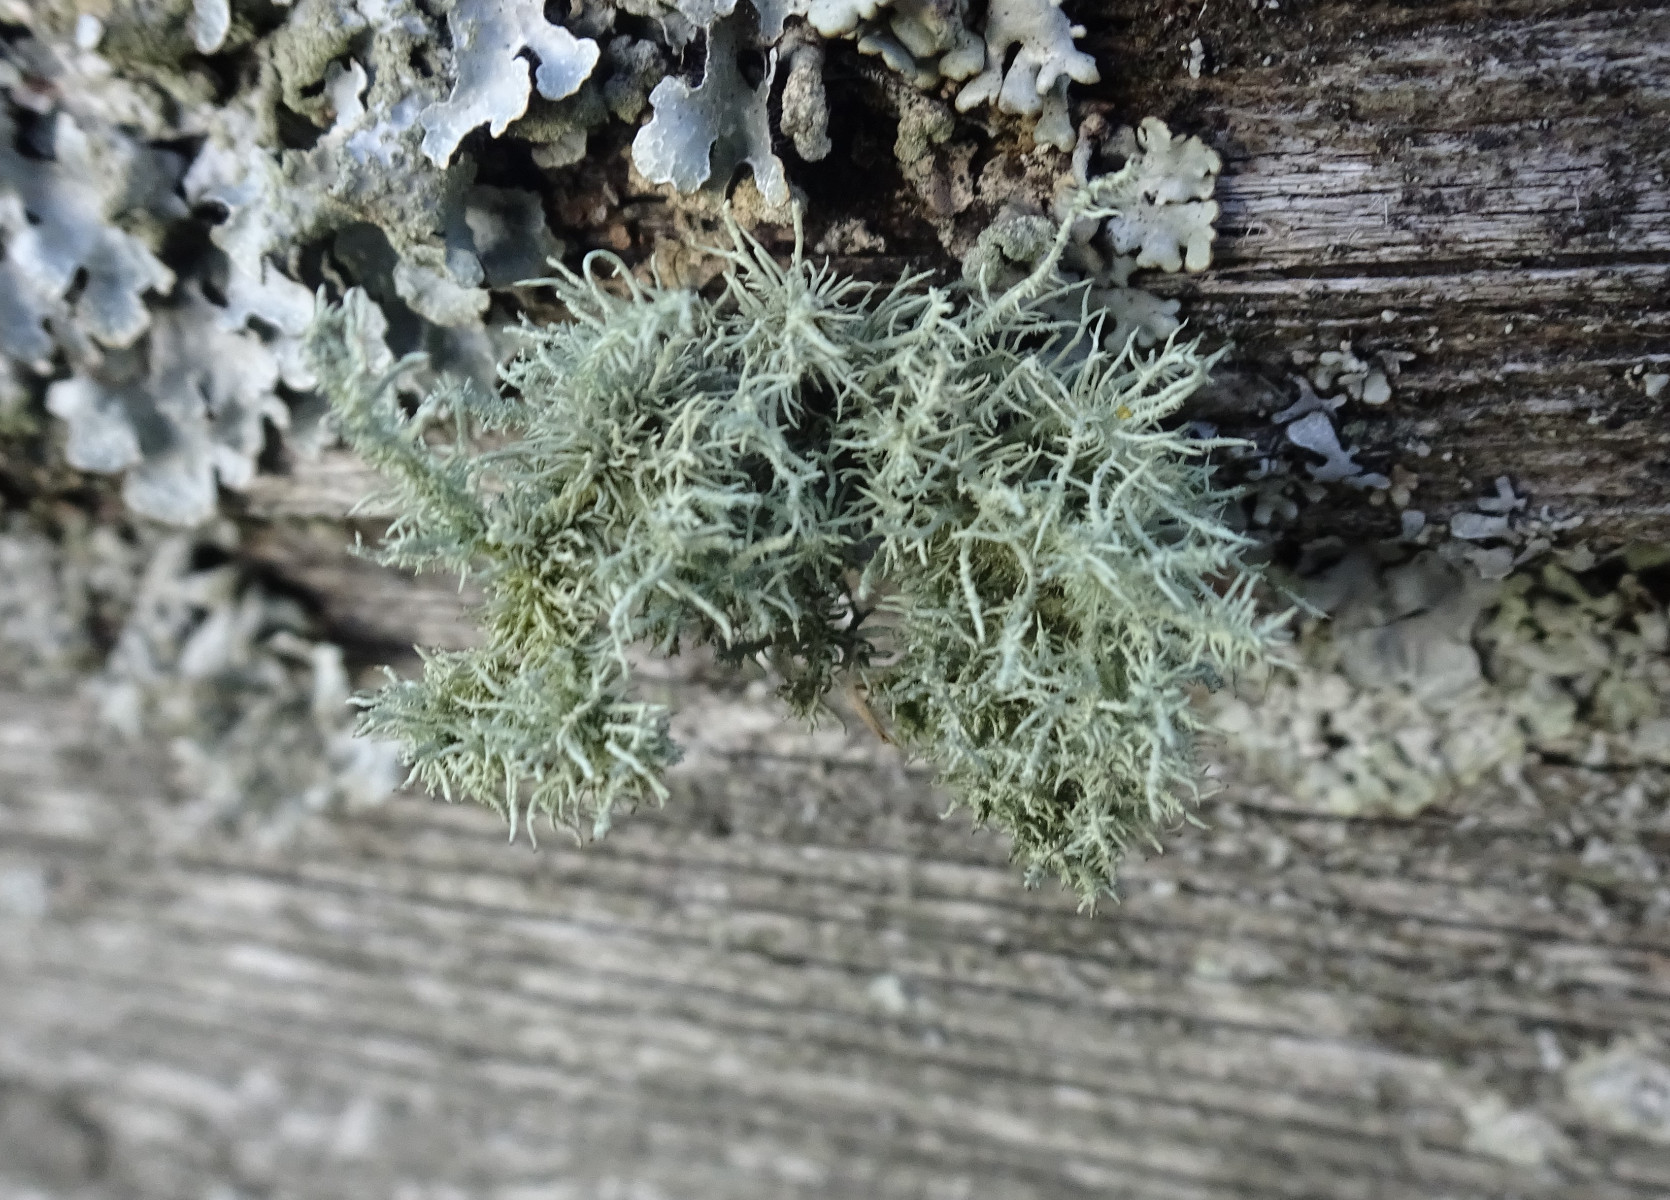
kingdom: Fungi
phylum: Ascomycota
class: Lecanoromycetes
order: Lecanorales
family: Parmeliaceae
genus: Usnea
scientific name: Usnea hirta
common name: liden skæglav
